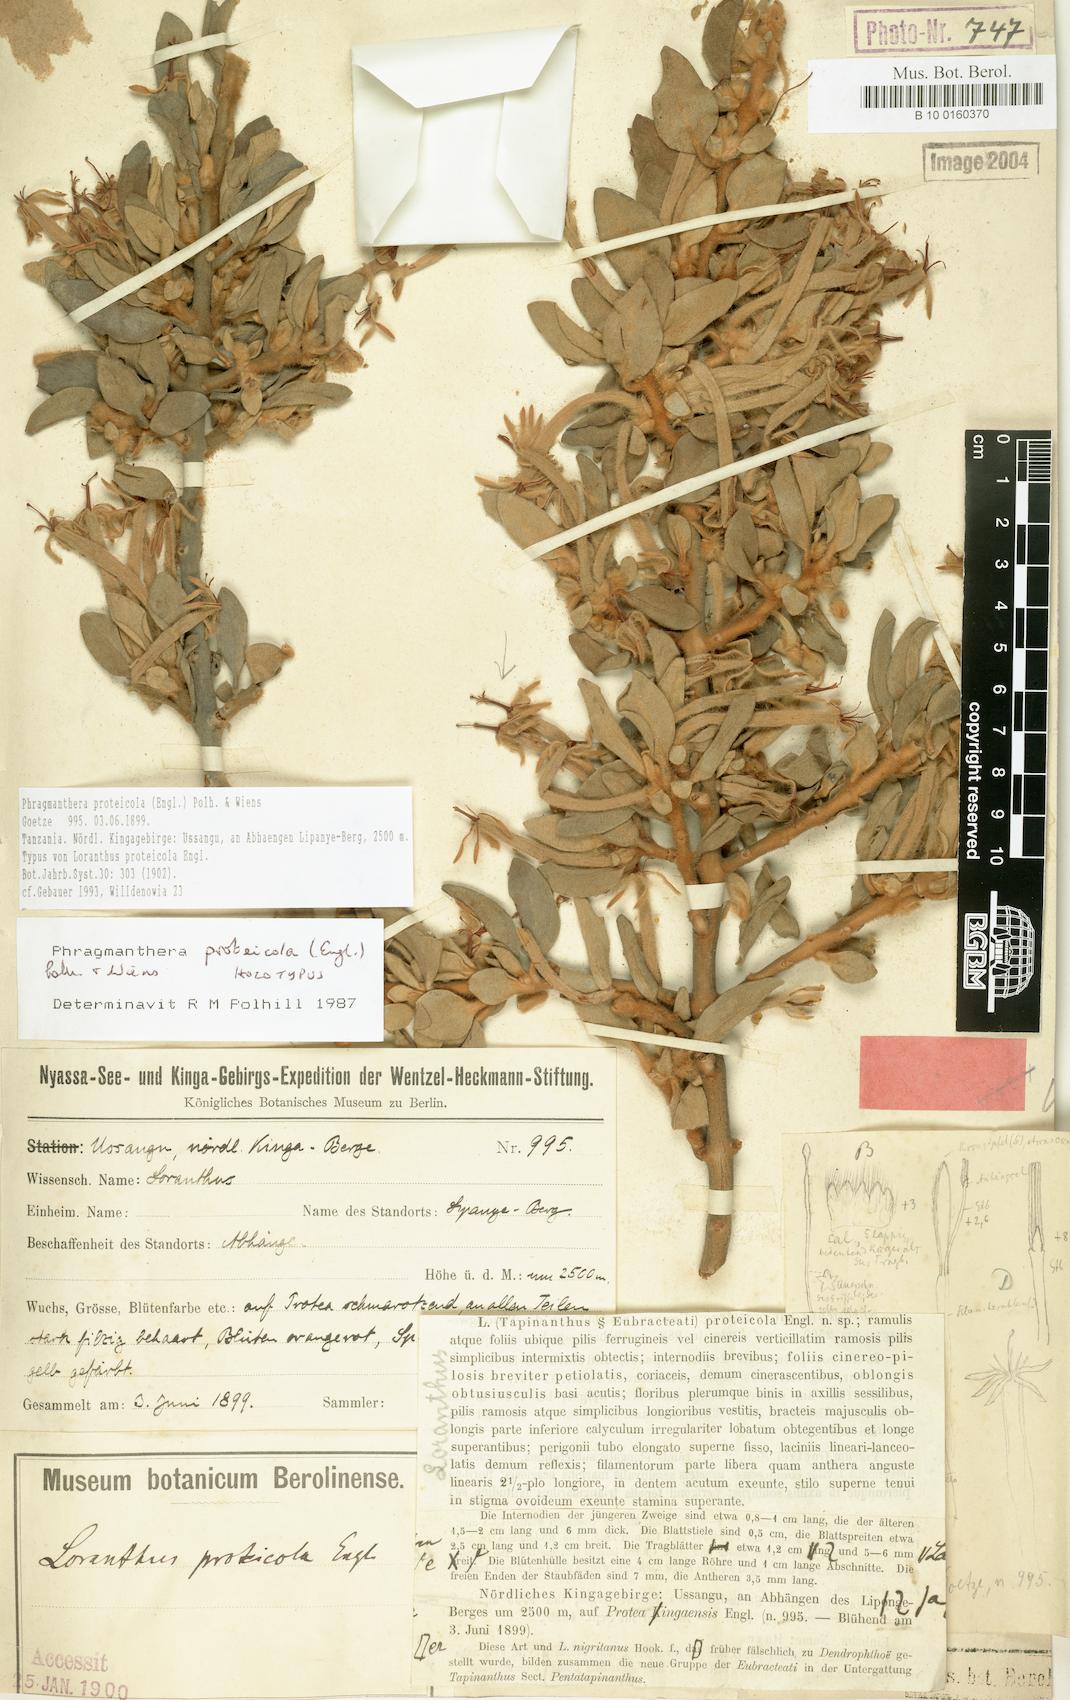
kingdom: Plantae
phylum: Tracheophyta
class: Magnoliopsida
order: Santalales
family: Loranthaceae
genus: Phragmanthera
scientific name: Phragmanthera proteicola
